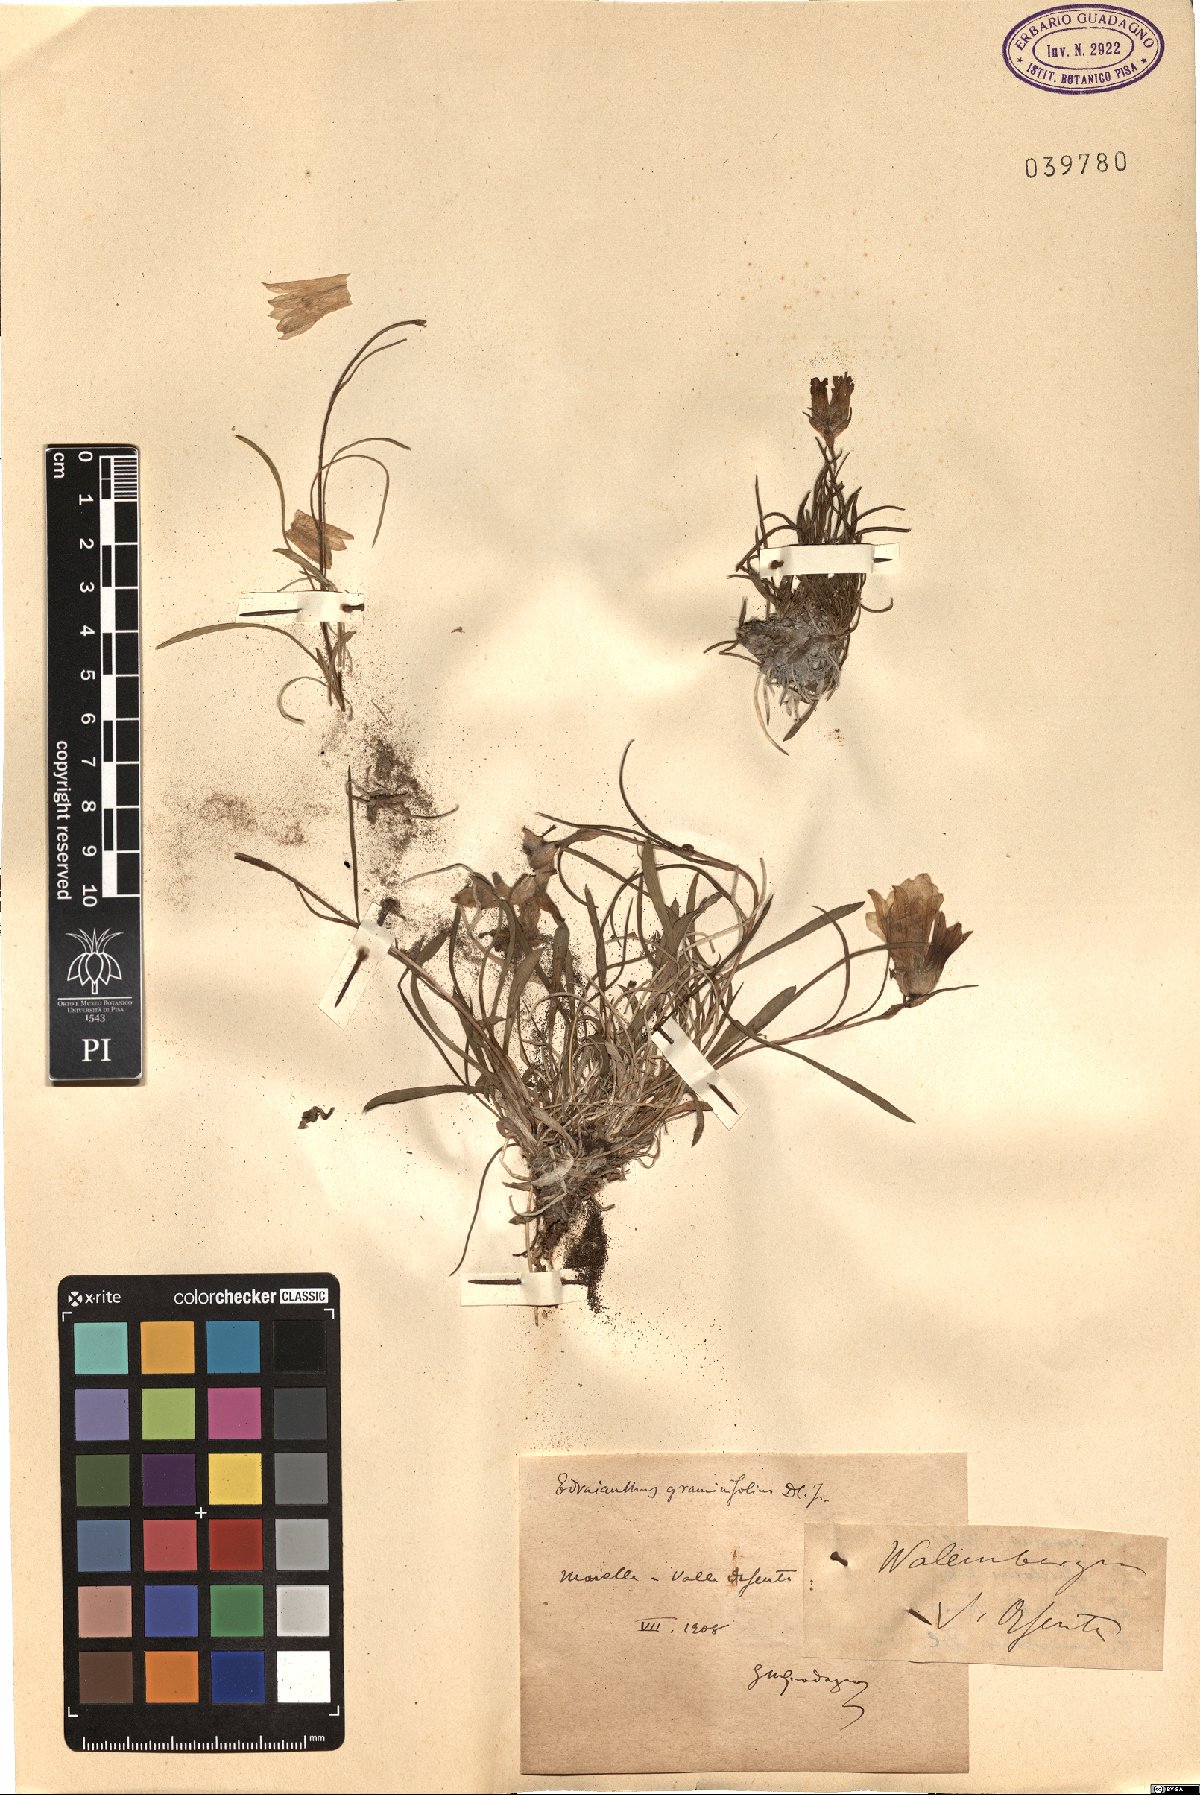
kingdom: Plantae
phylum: Tracheophyta
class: Magnoliopsida
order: Asterales
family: Campanulaceae
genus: Wahlenbergia
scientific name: Wahlenbergia
